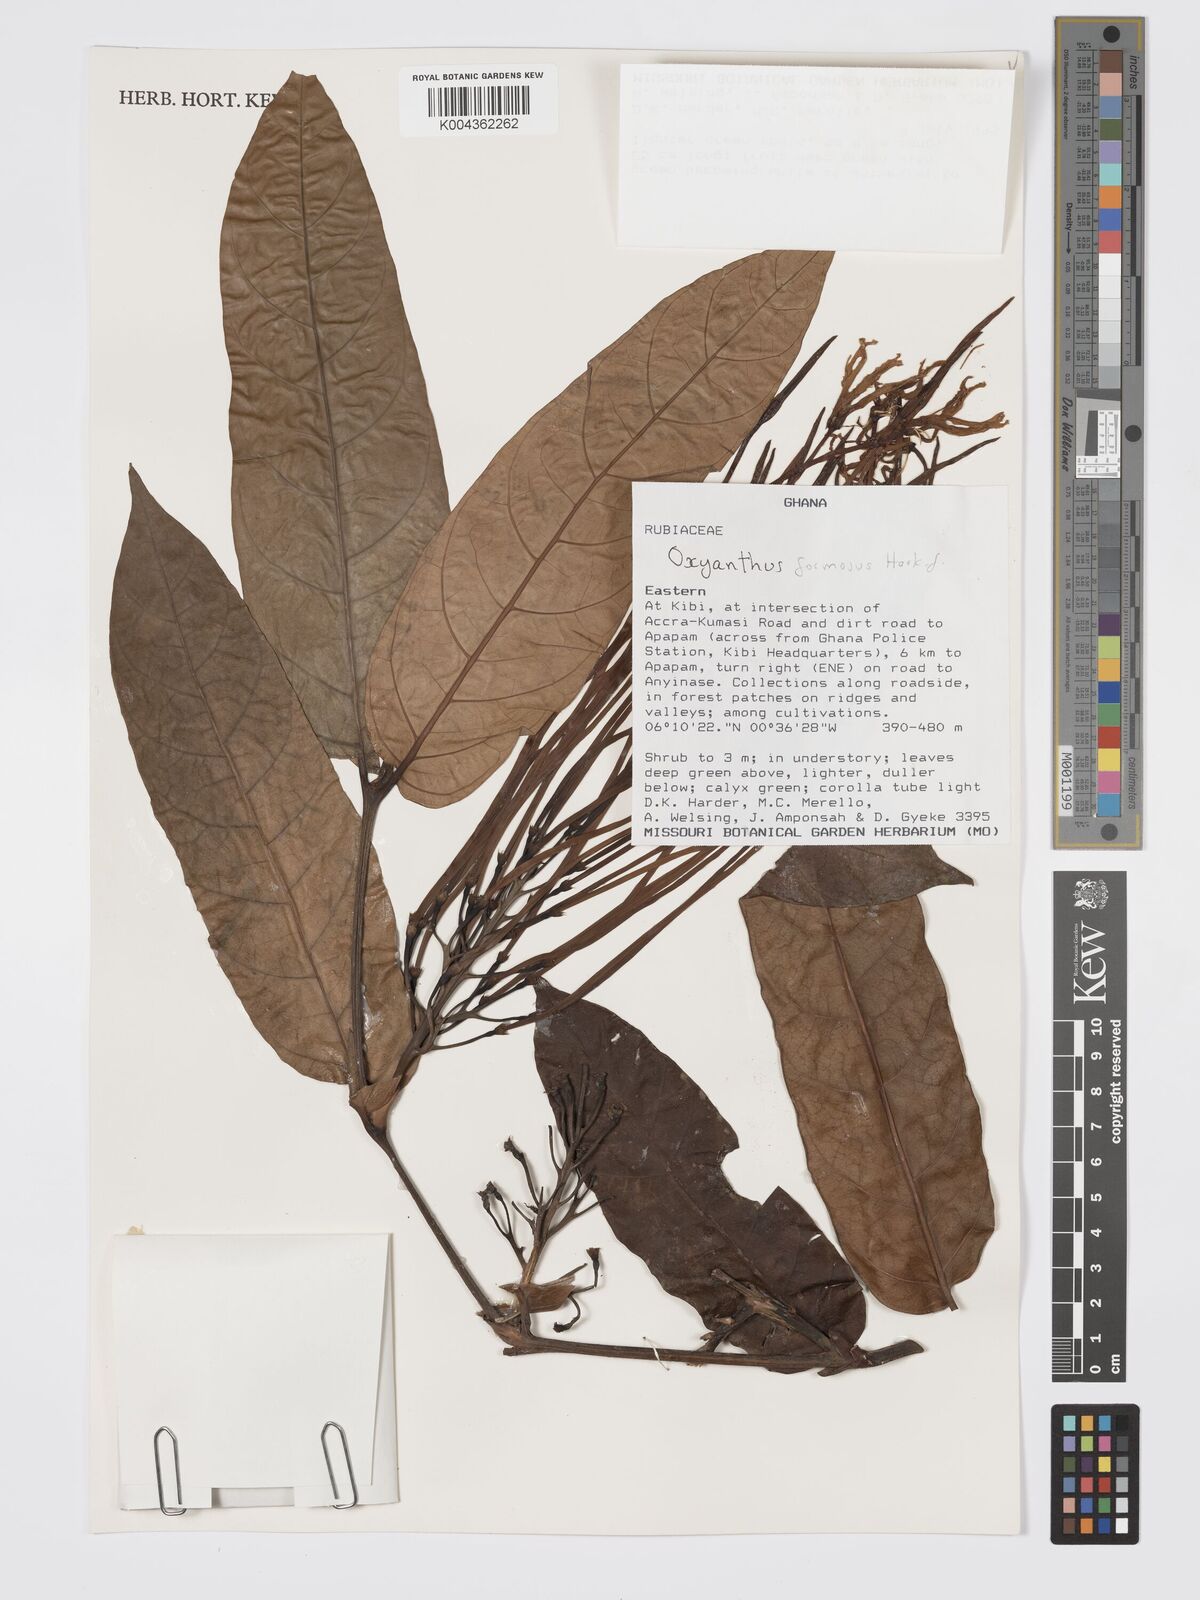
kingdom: Plantae
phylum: Tracheophyta
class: Magnoliopsida
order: Gentianales
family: Rubiaceae
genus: Oxyanthus
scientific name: Oxyanthus formosus
